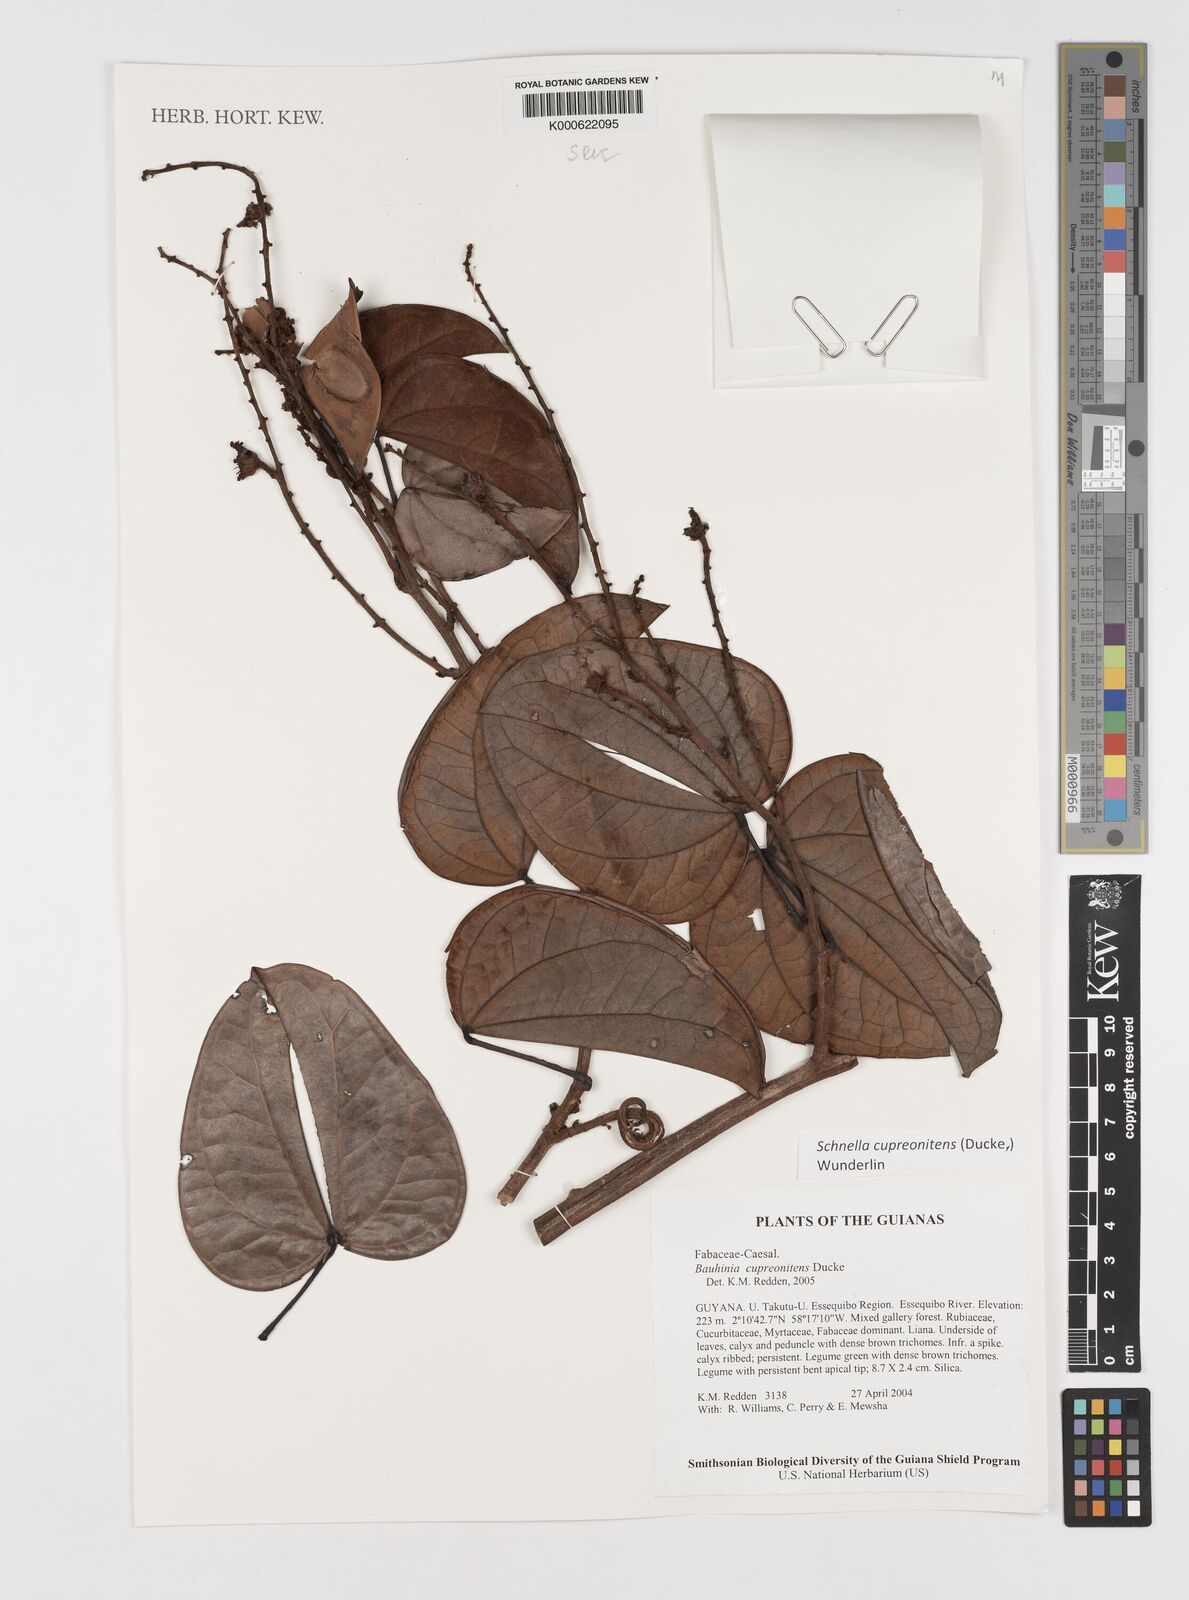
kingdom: Plantae
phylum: Tracheophyta
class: Magnoliopsida
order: Fabales
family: Fabaceae
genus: Schnella
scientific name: Schnella cupreonitens
